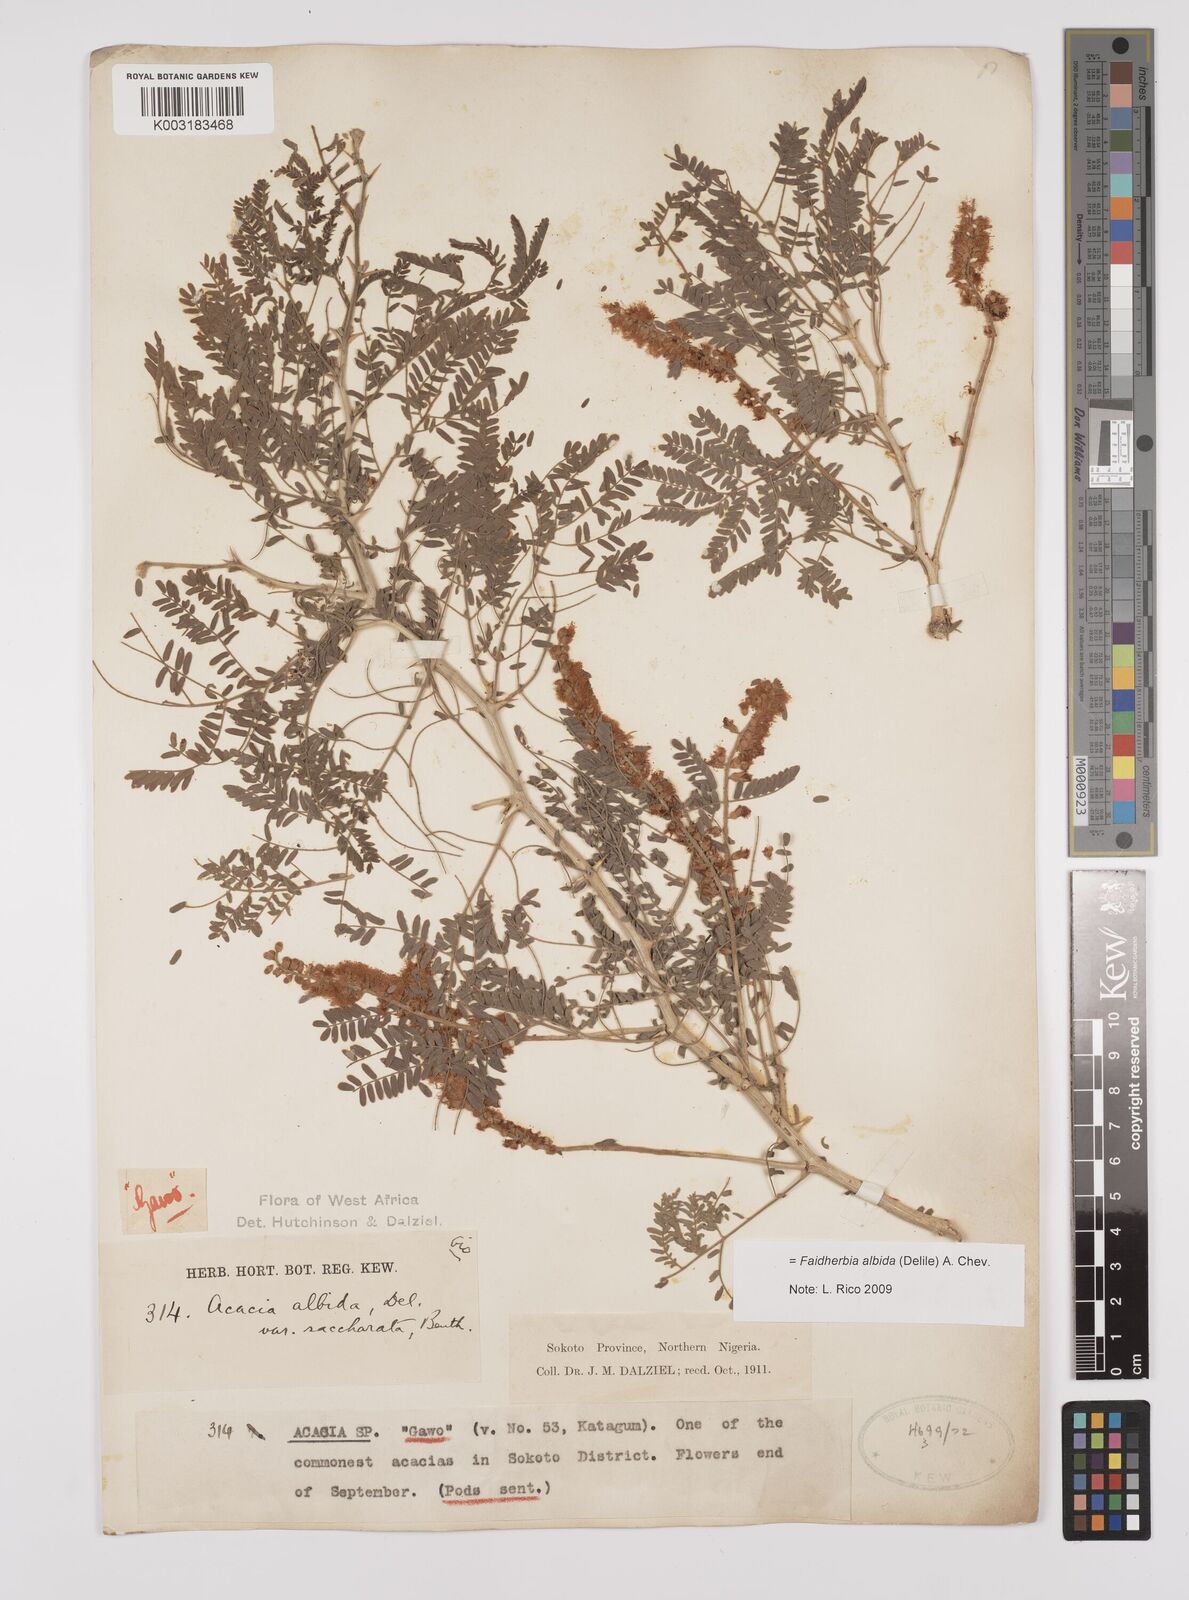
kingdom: Plantae
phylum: Tracheophyta
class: Magnoliopsida
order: Fabales
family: Fabaceae
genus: Faidherbia
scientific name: Faidherbia albida
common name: Anatree
